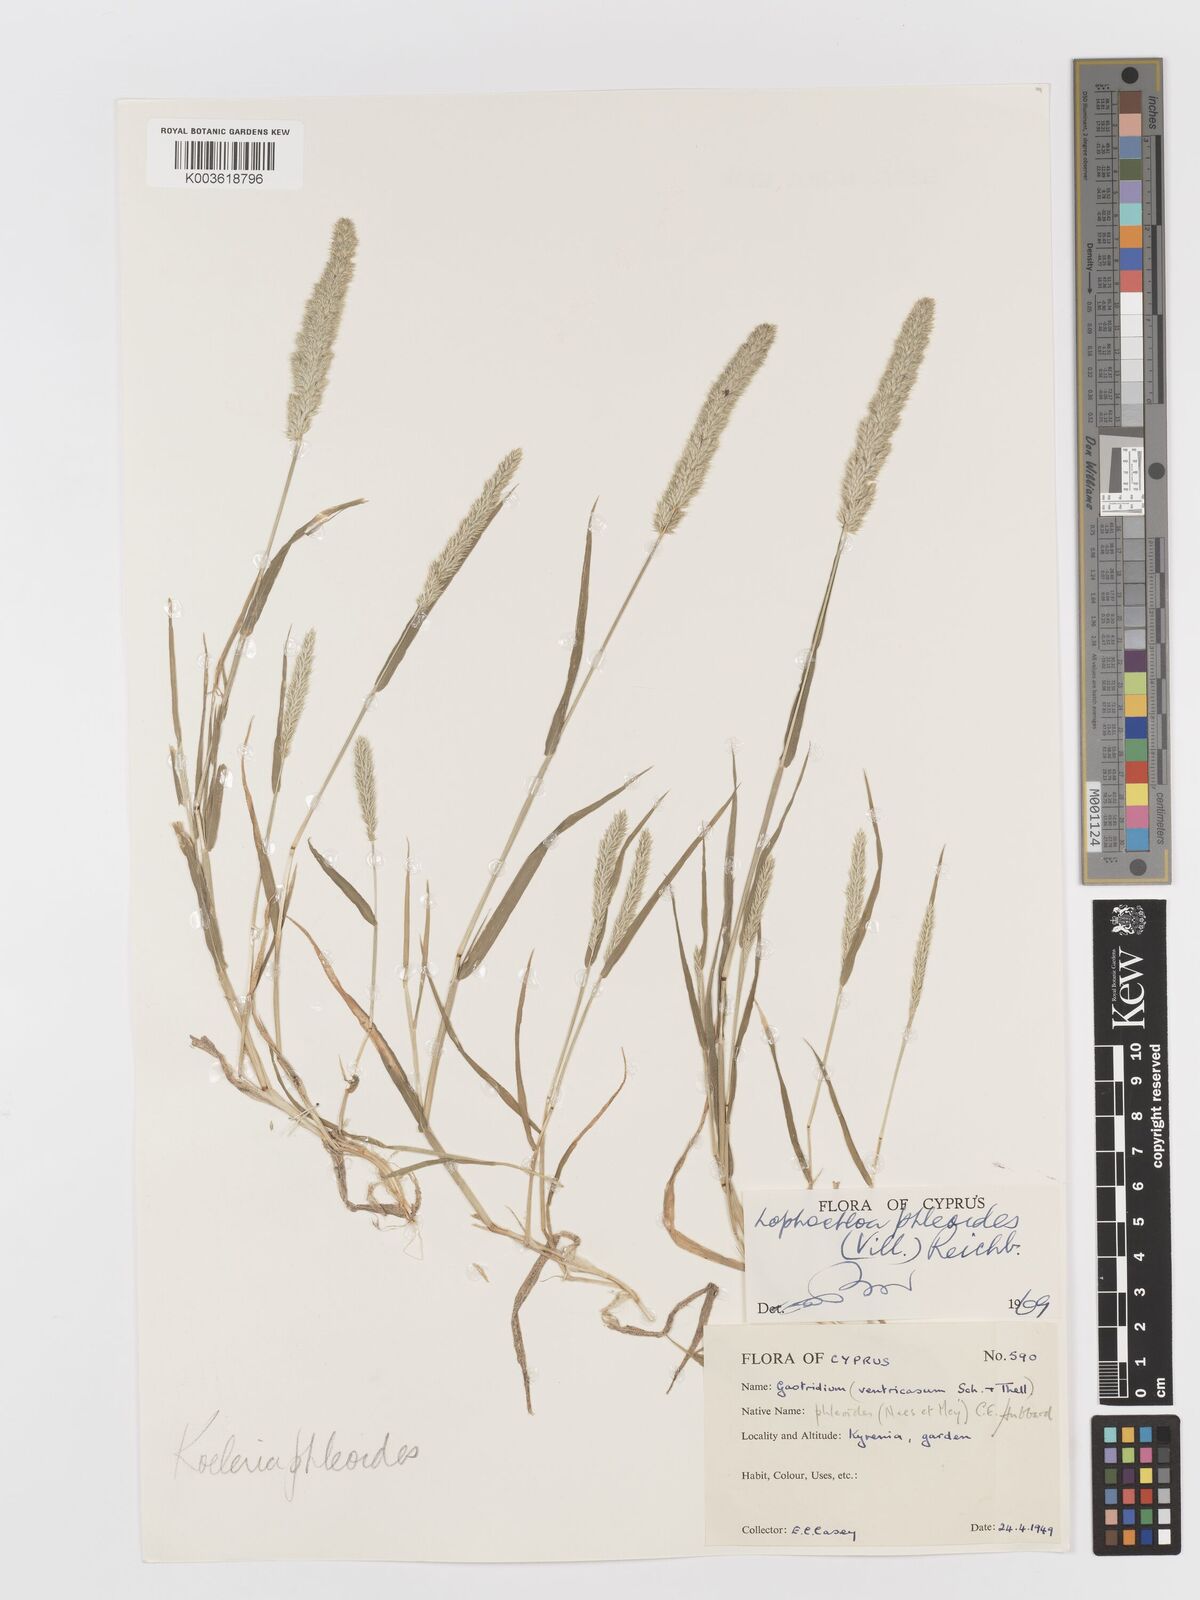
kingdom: Plantae
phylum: Tracheophyta
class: Liliopsida
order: Poales
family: Poaceae
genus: Rostraria
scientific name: Rostraria cristata
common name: Mediterranean hair-grass
